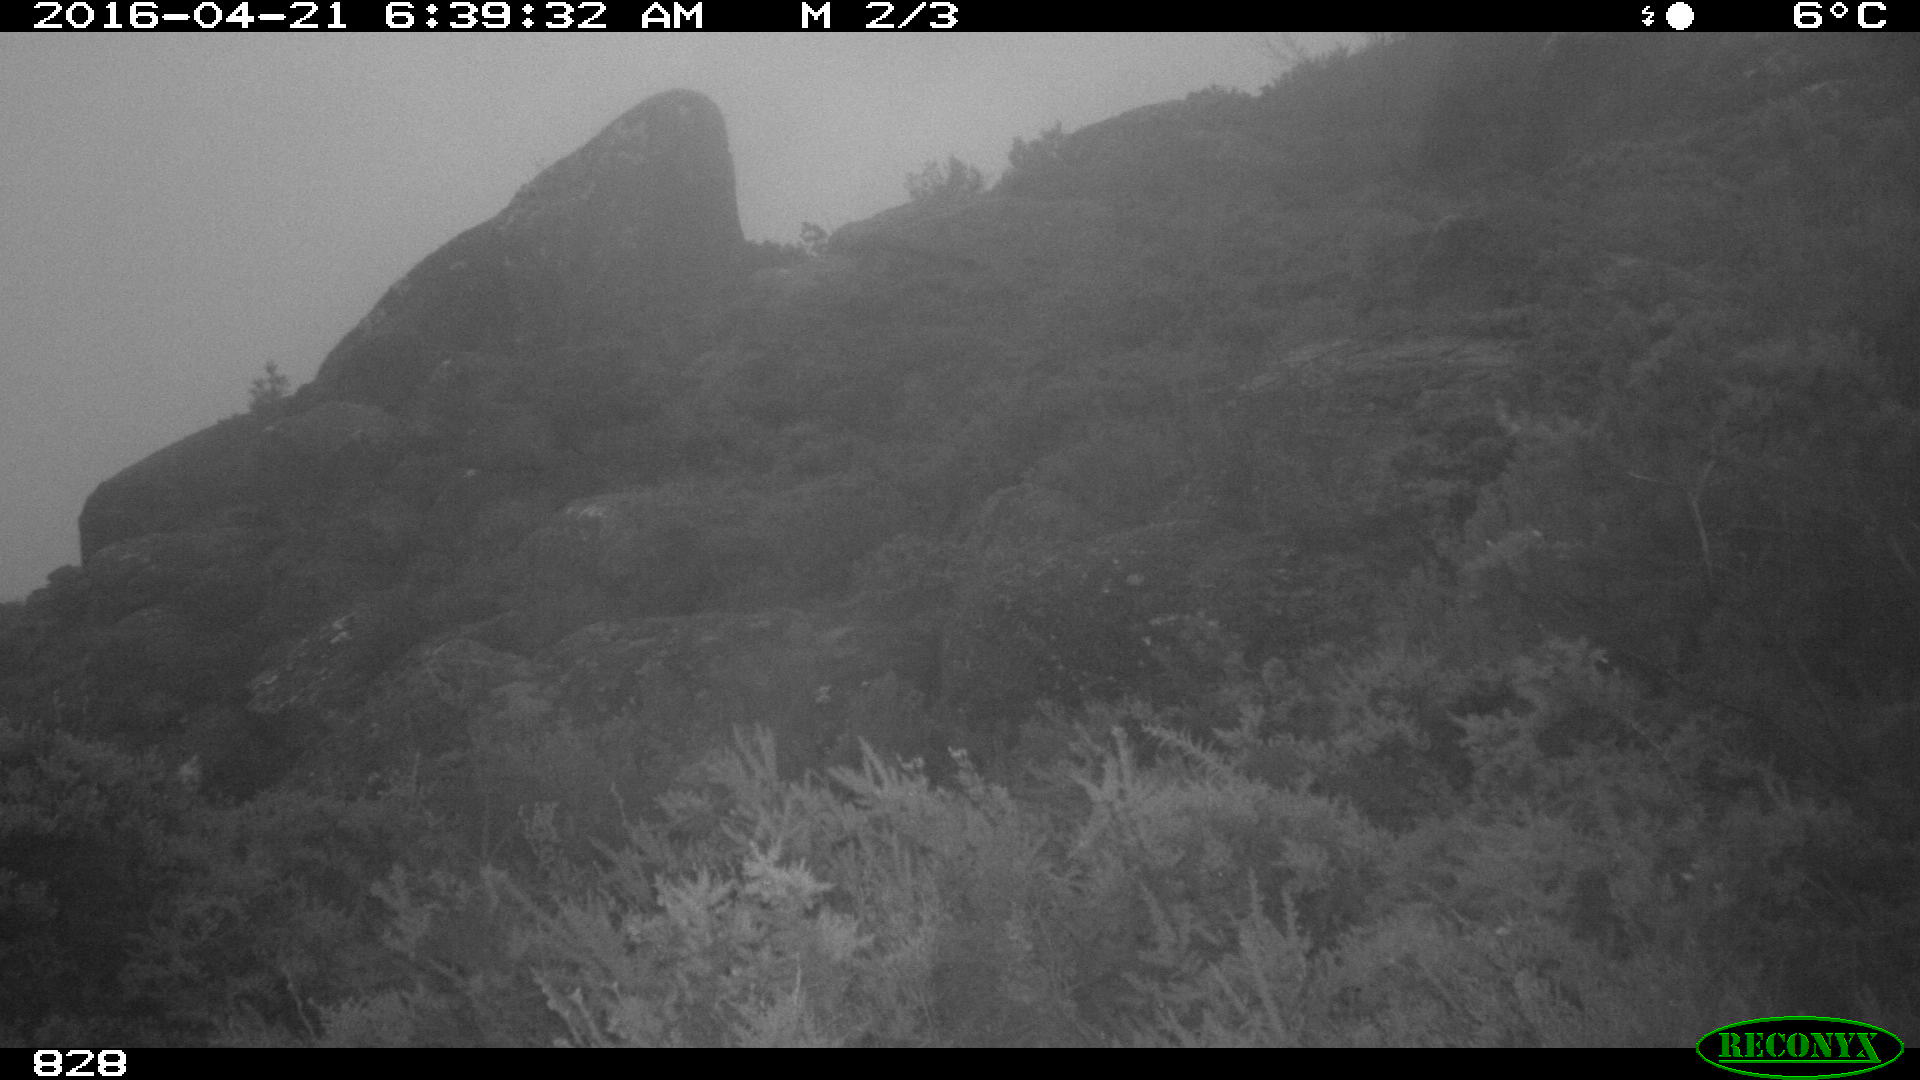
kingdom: Animalia
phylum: Chordata
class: Mammalia
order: Artiodactyla
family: Cervidae
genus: Capreolus
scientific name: Capreolus capreolus
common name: Western roe deer
